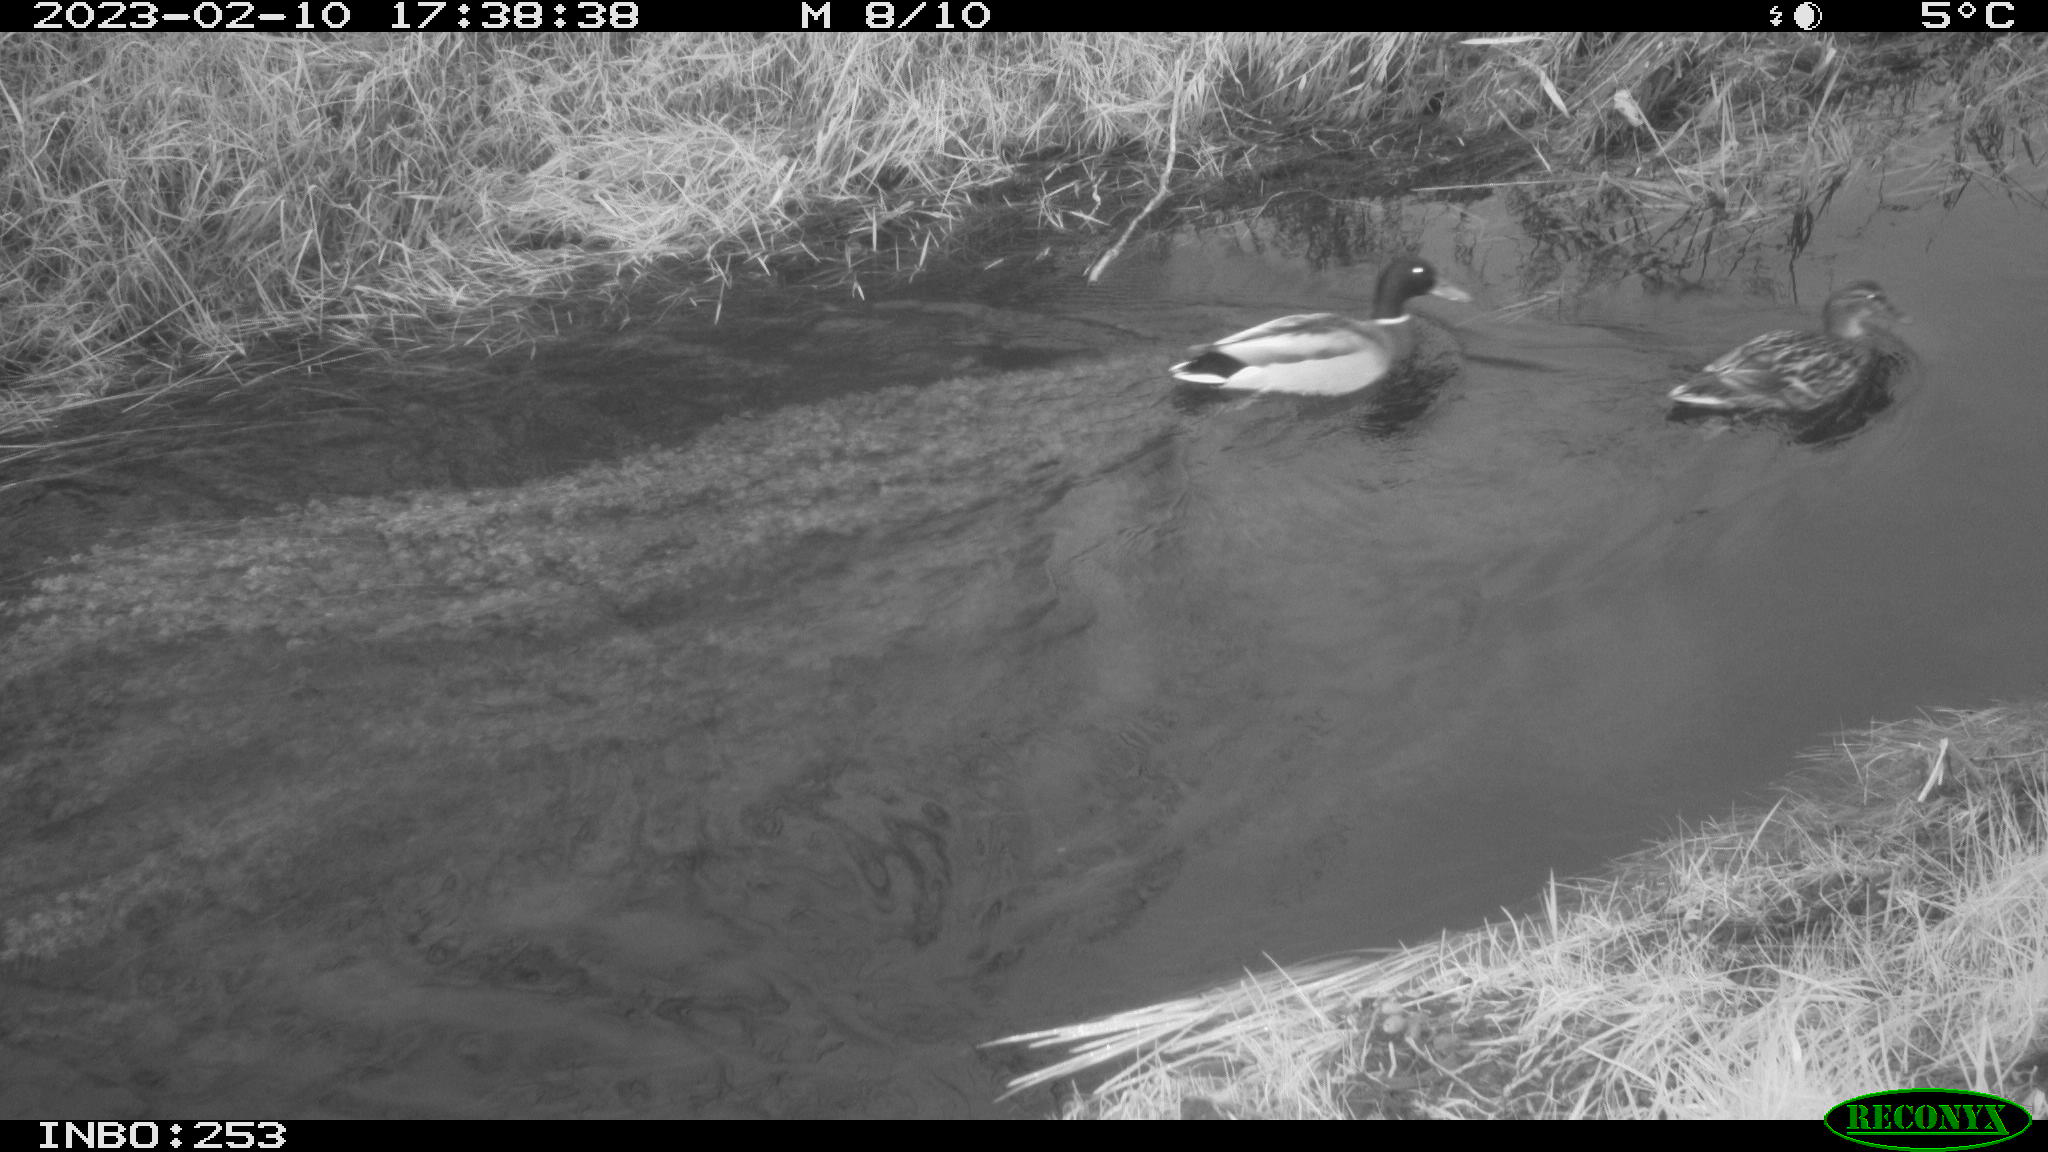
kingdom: Animalia
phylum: Chordata
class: Aves
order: Anseriformes
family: Anatidae
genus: Anas
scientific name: Anas
